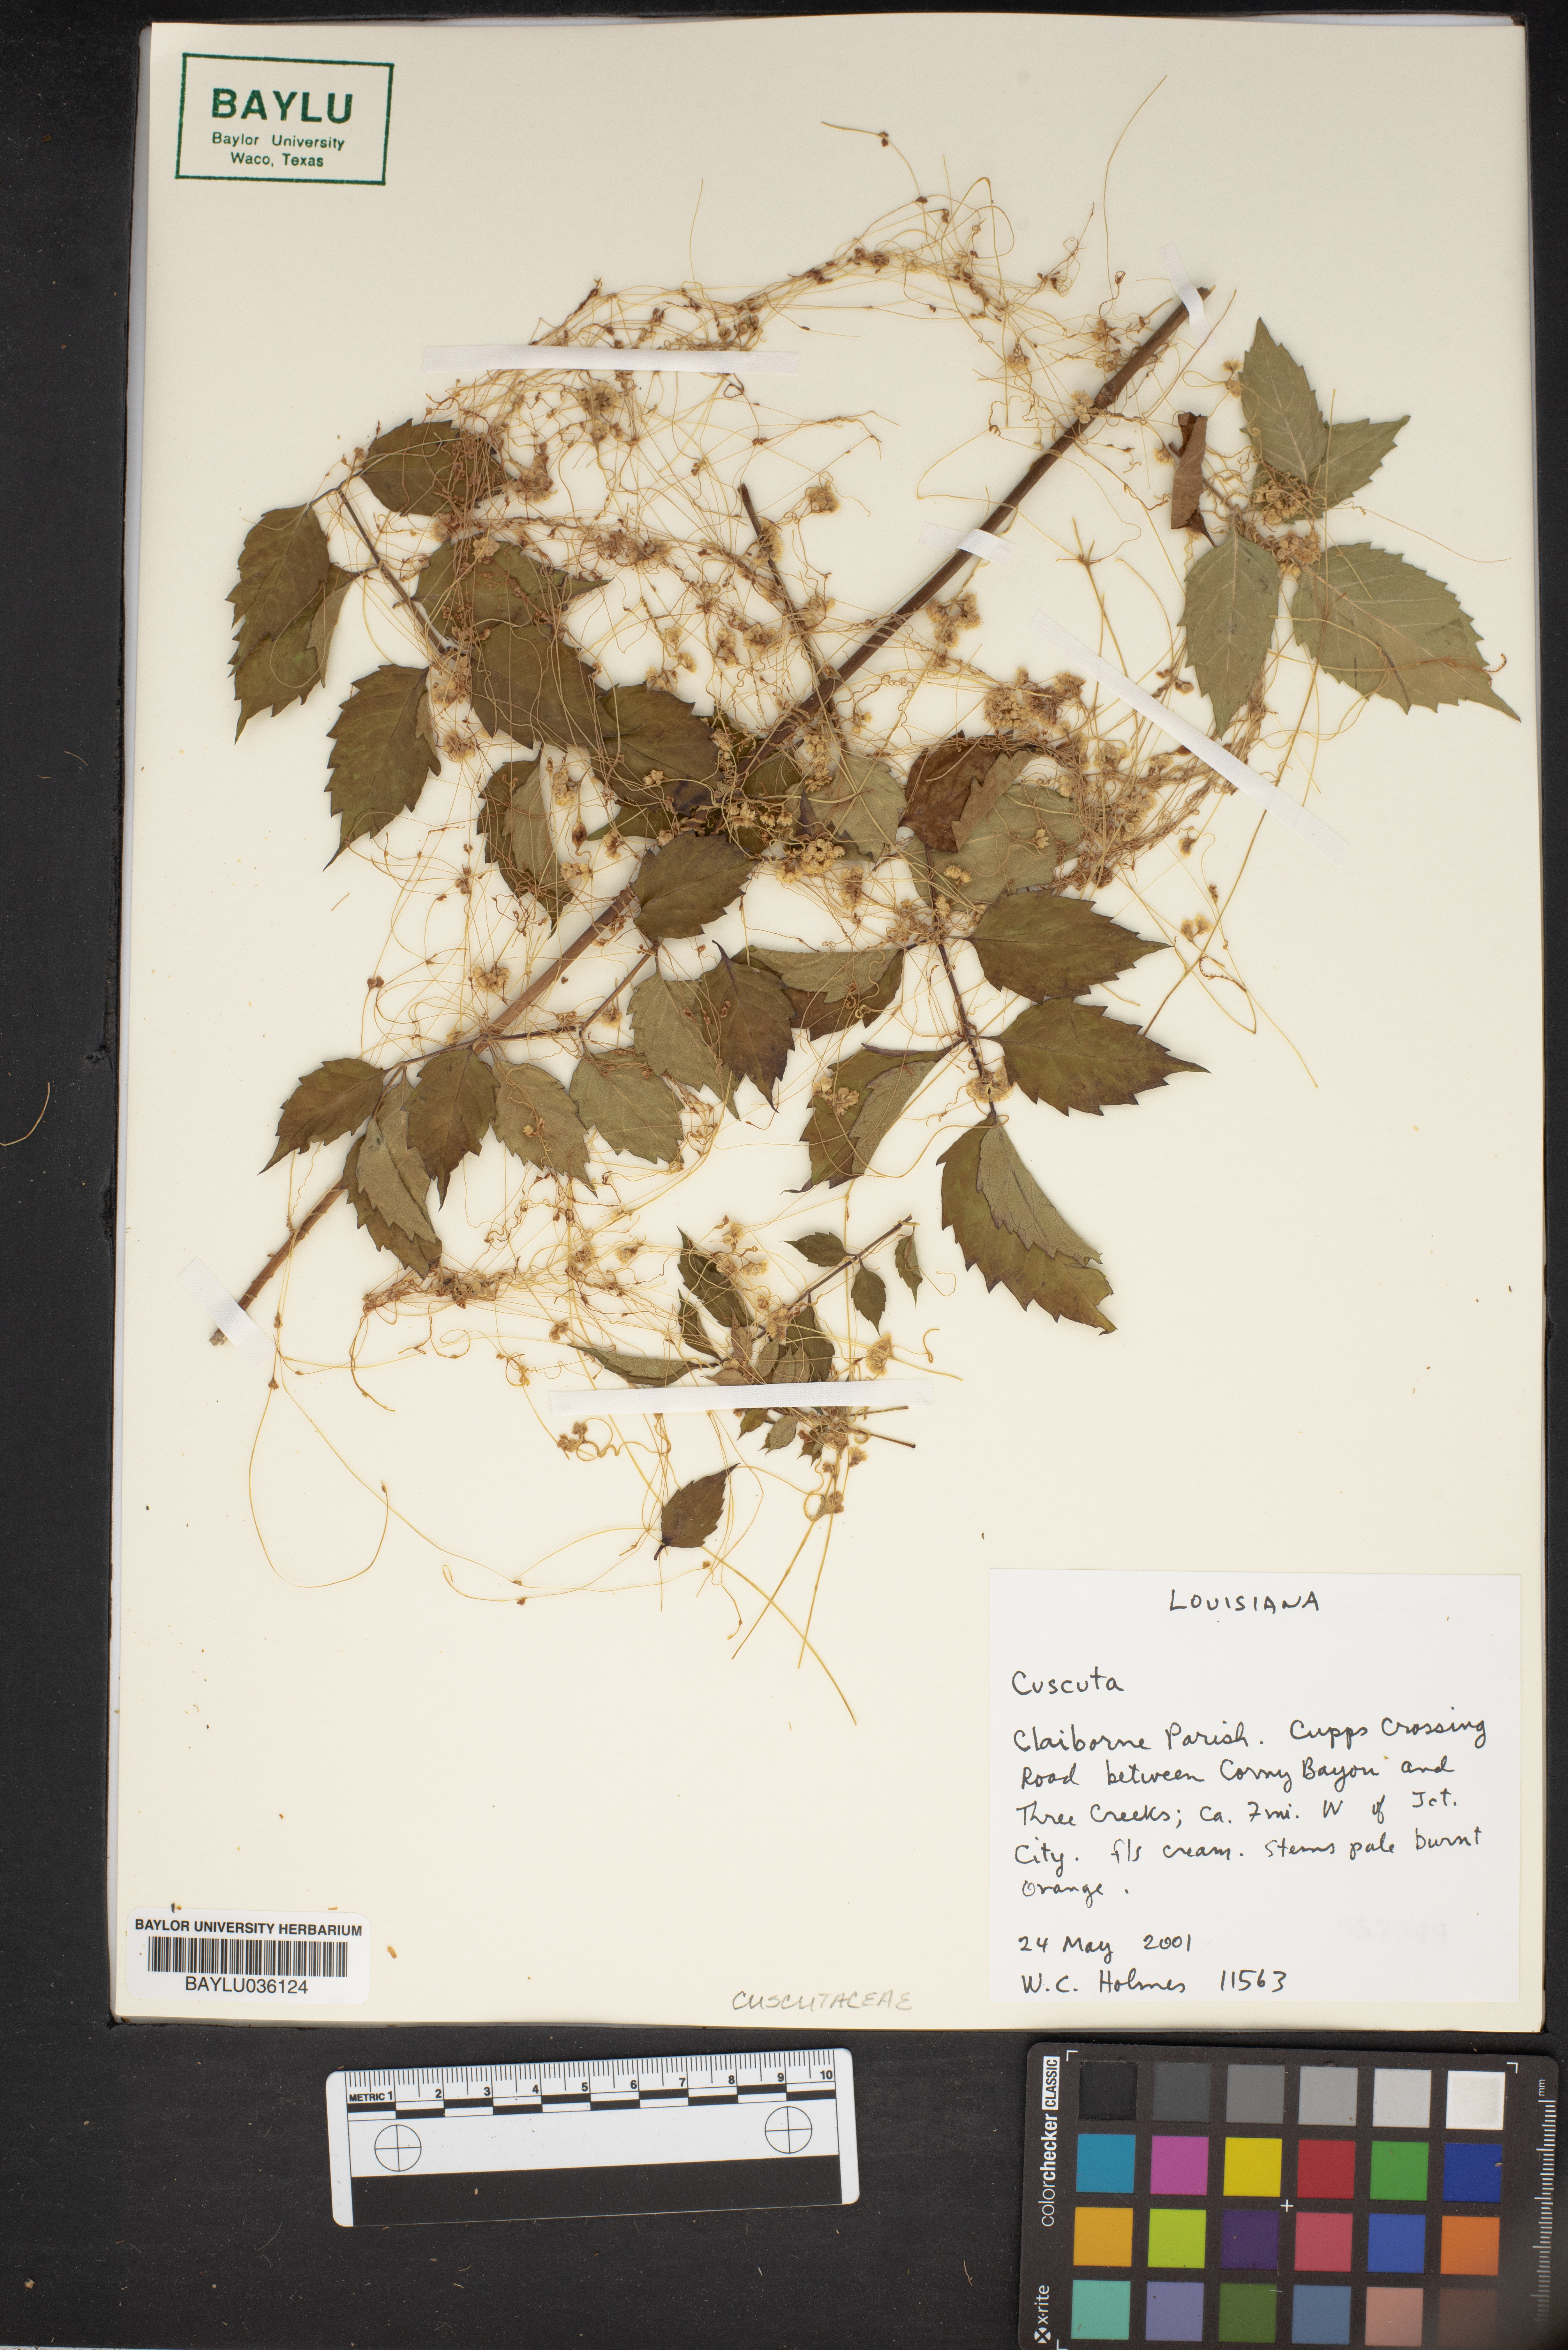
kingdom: Plantae
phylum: Tracheophyta
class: Magnoliopsida
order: Solanales
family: Convolvulaceae
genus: Cuscuta
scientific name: Cuscuta
